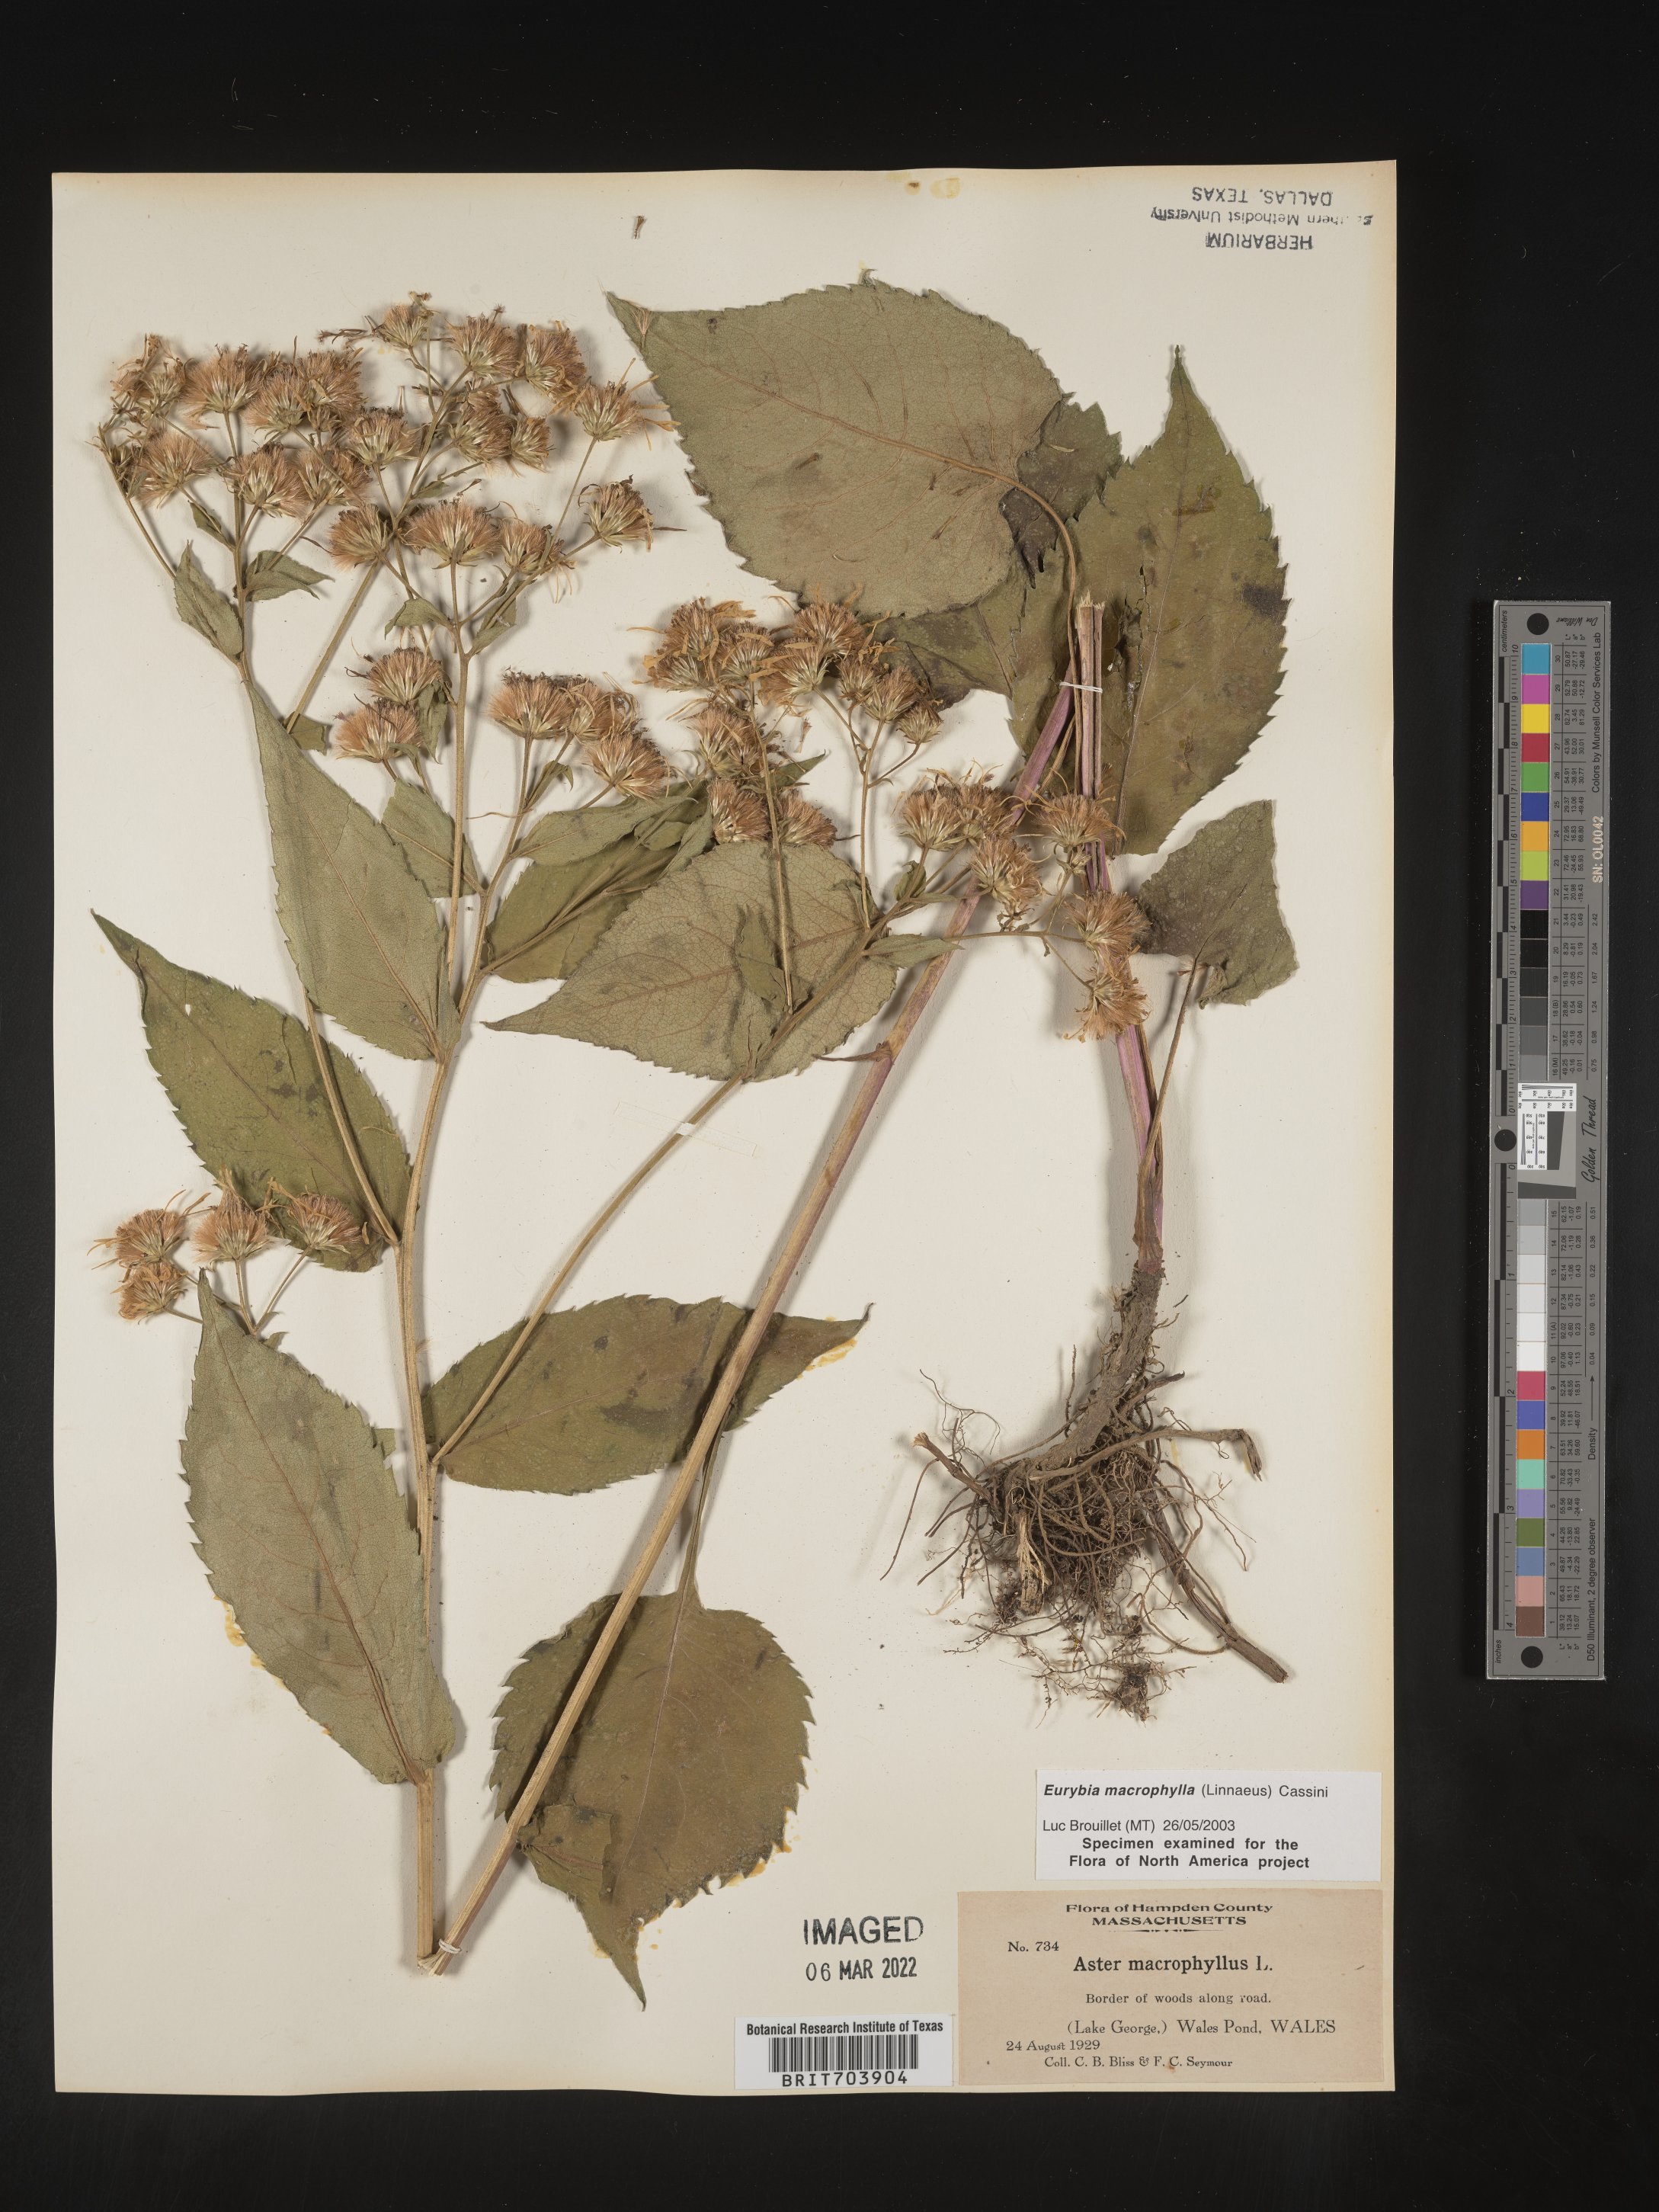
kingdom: Plantae
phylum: Tracheophyta
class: Magnoliopsida
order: Asterales
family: Asteraceae
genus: Eurybia
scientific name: Eurybia macrophylla
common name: Big-leaved aster
